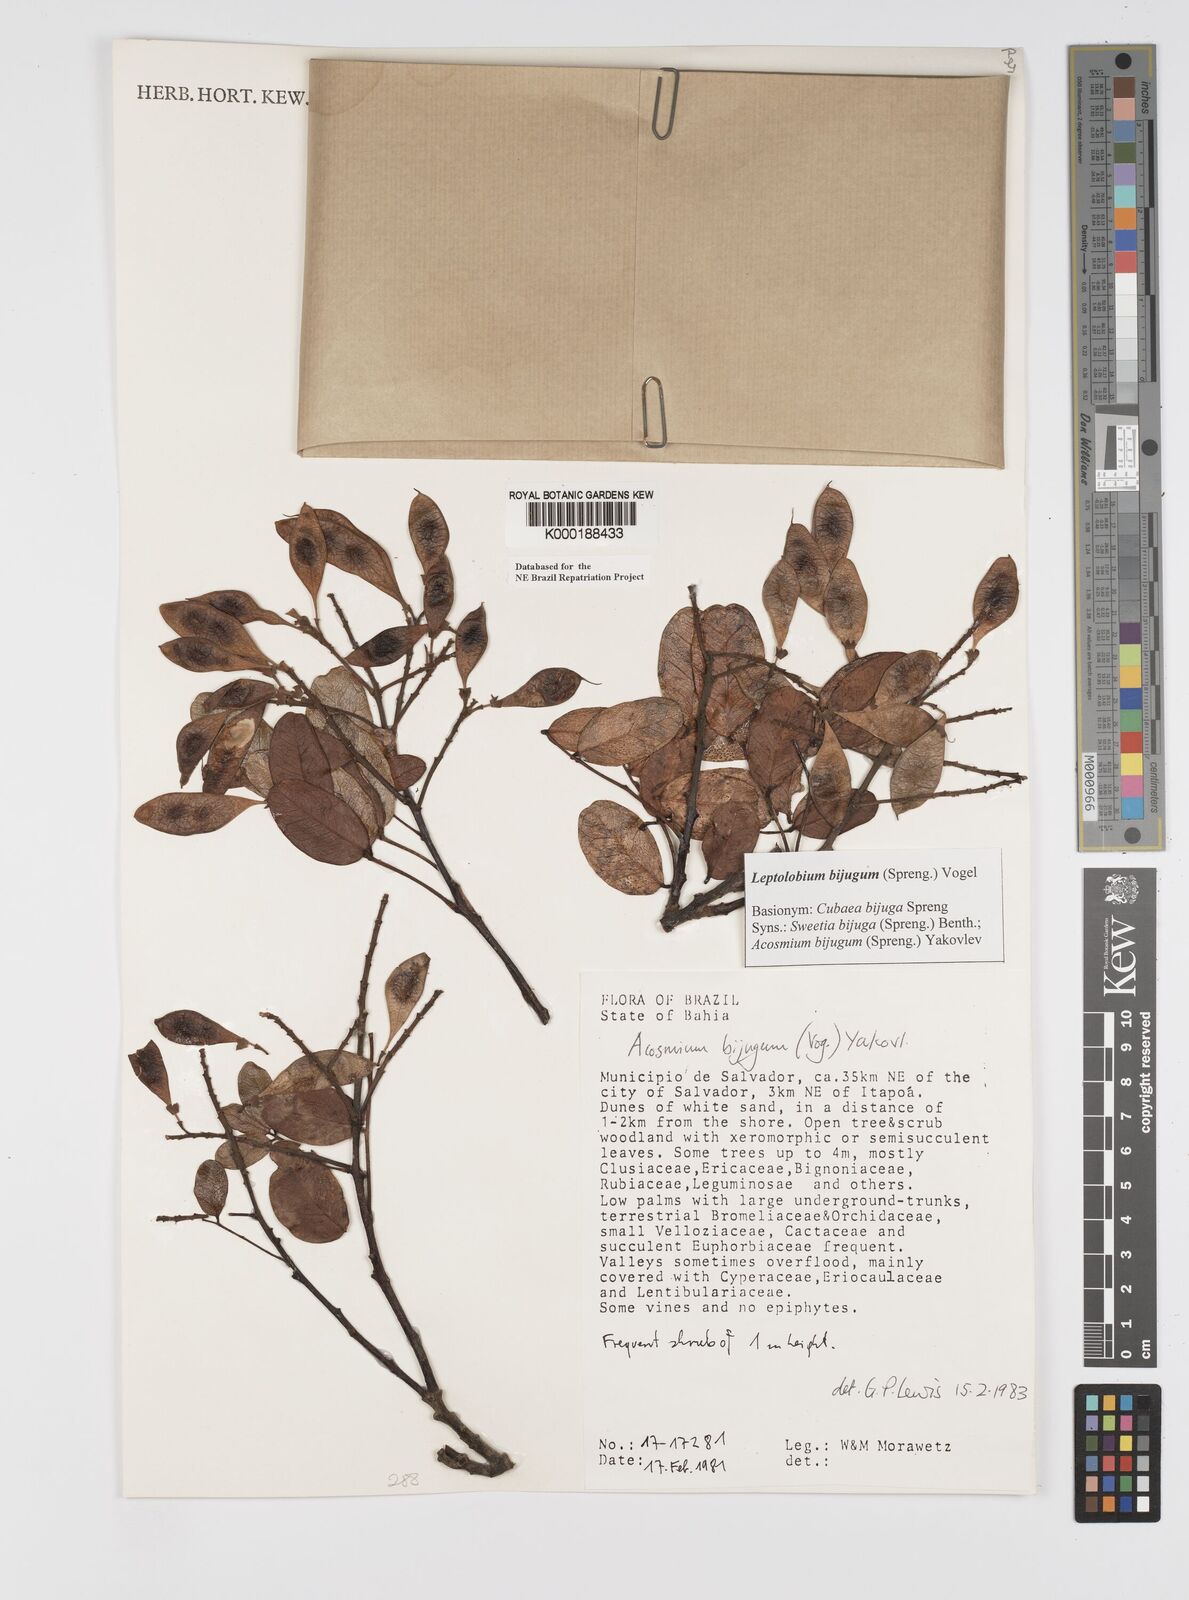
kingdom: Plantae
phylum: Tracheophyta
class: Magnoliopsida
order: Fabales
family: Fabaceae
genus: Leptolobium
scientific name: Leptolobium bijugum
